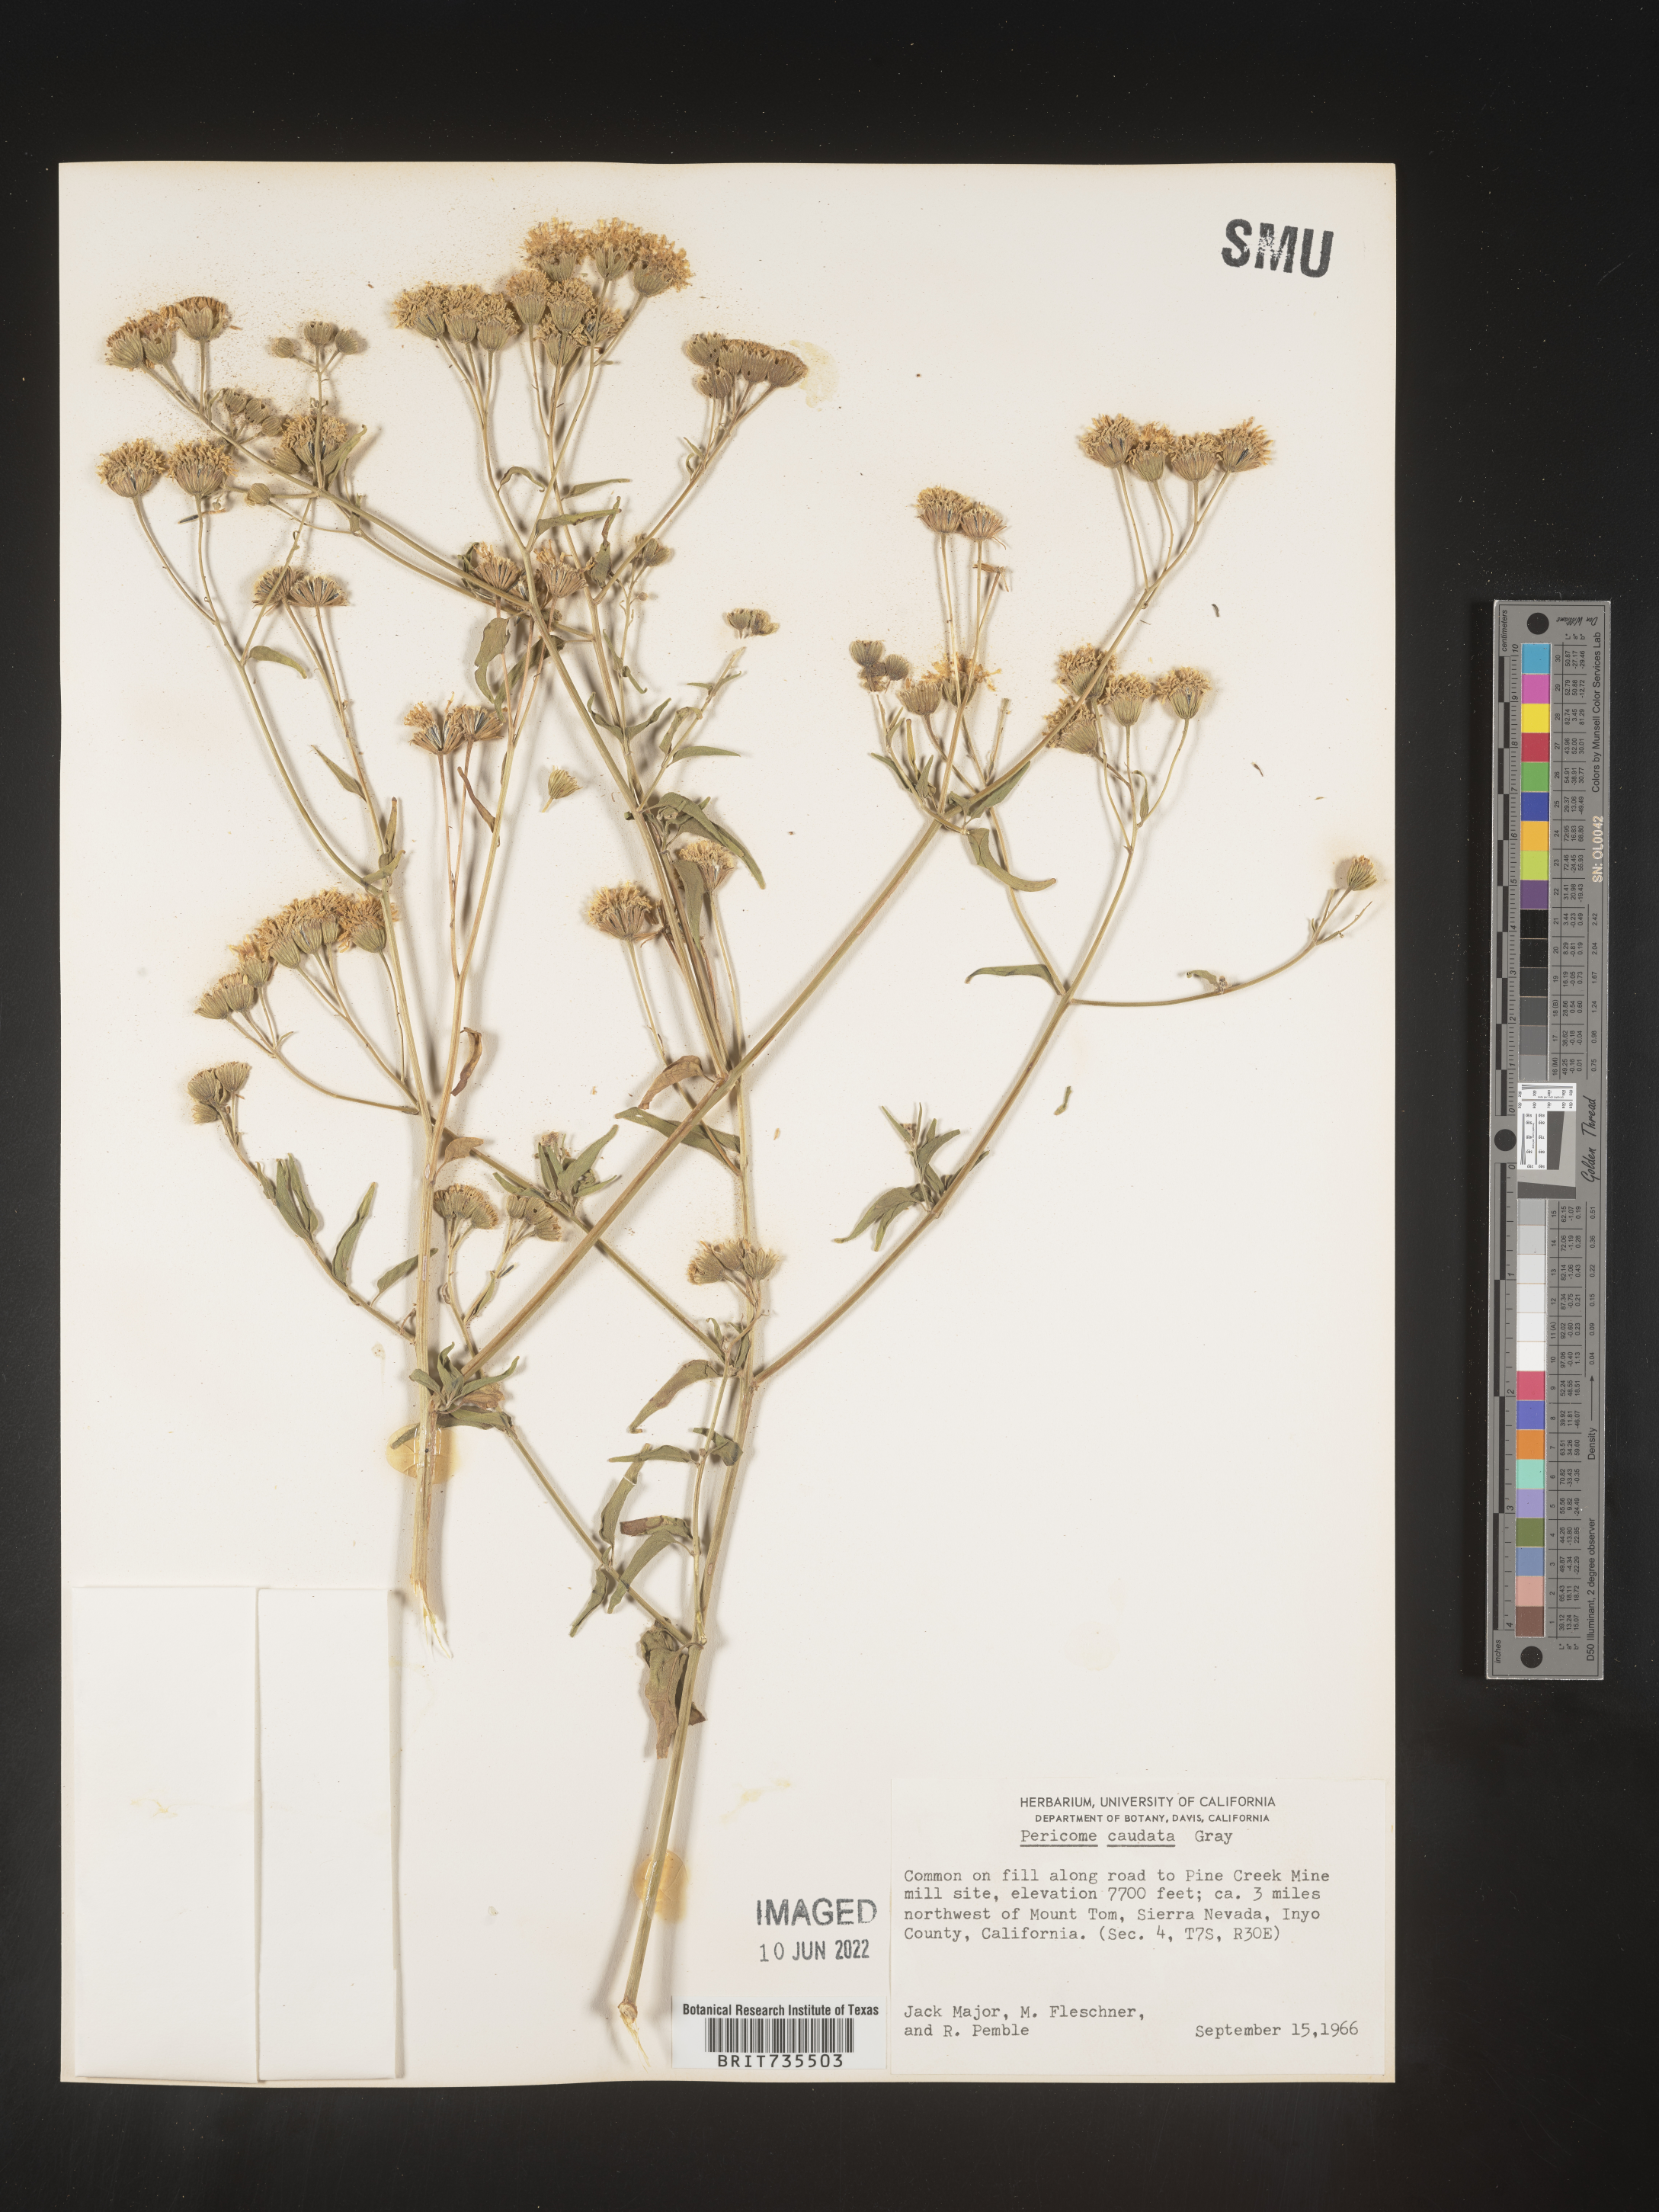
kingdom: Plantae
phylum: Tracheophyta
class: Magnoliopsida
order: Asterales
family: Asteraceae
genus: Pericome
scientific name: Pericome
